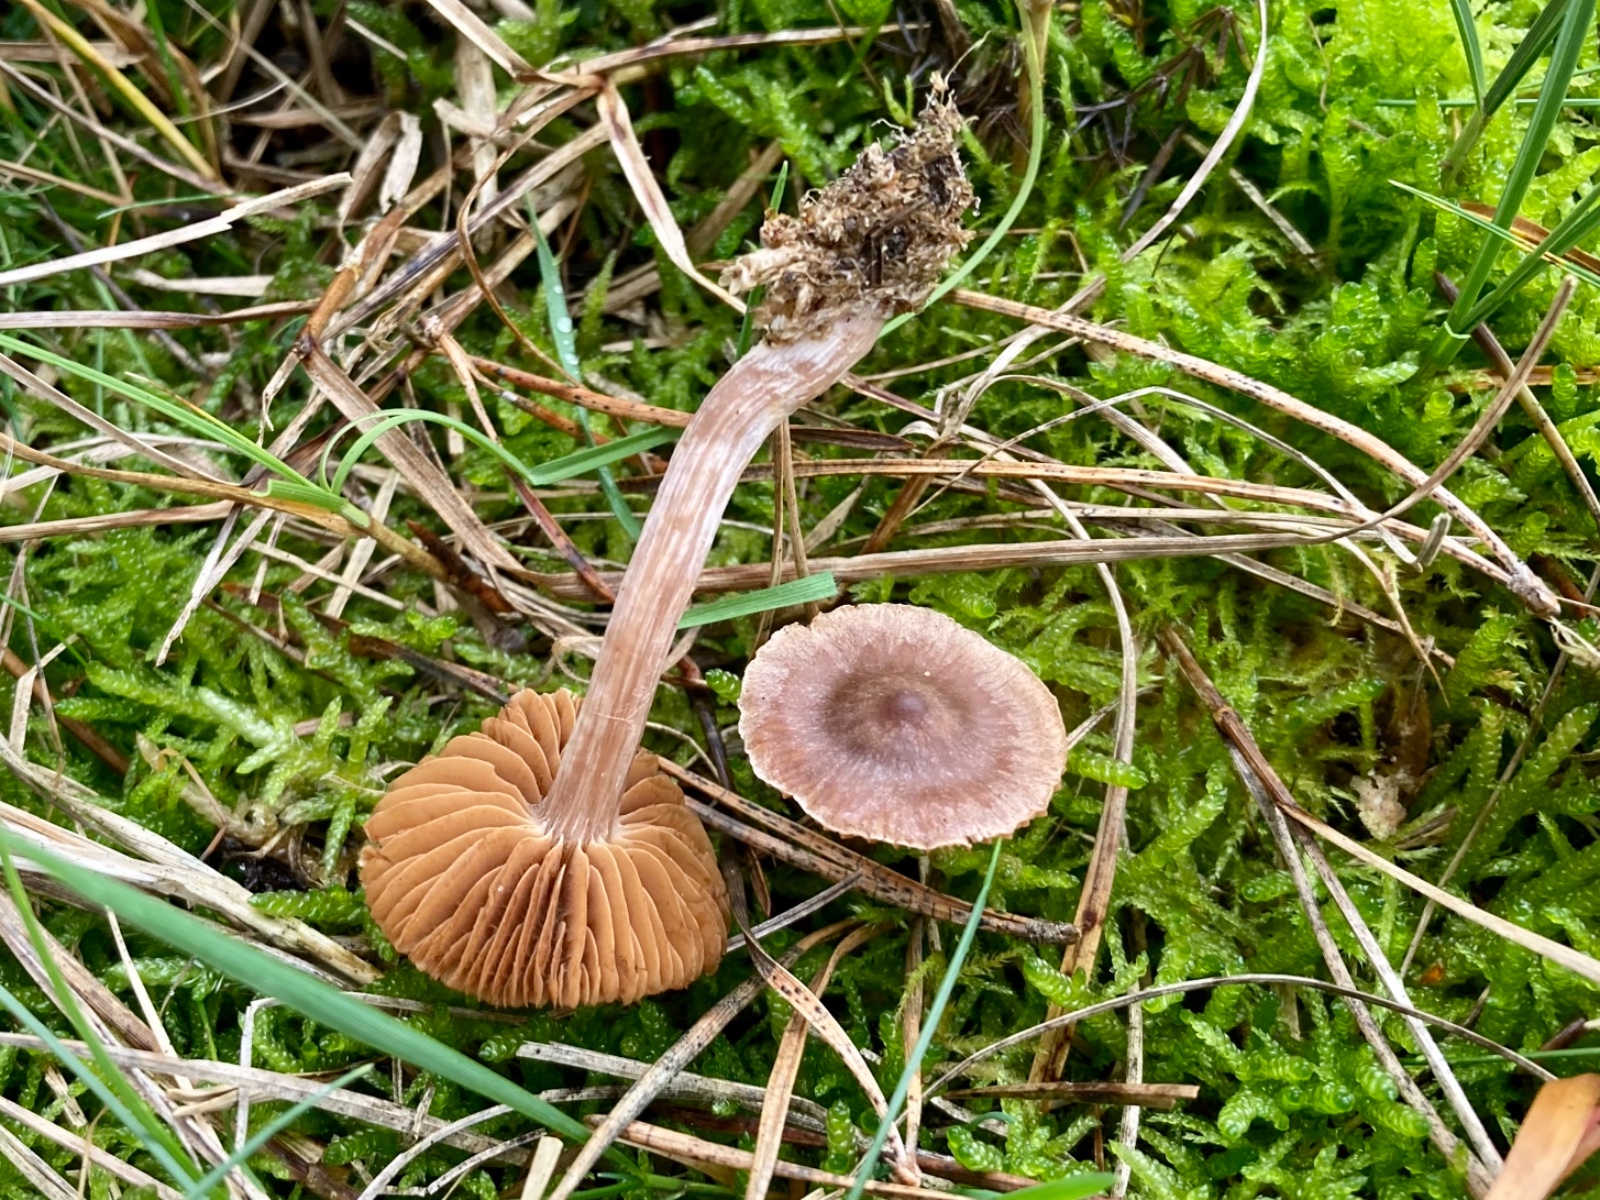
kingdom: Fungi
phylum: Basidiomycota
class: Agaricomycetes
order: Agaricales
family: Cortinariaceae
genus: Cortinarius
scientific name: Cortinarius
